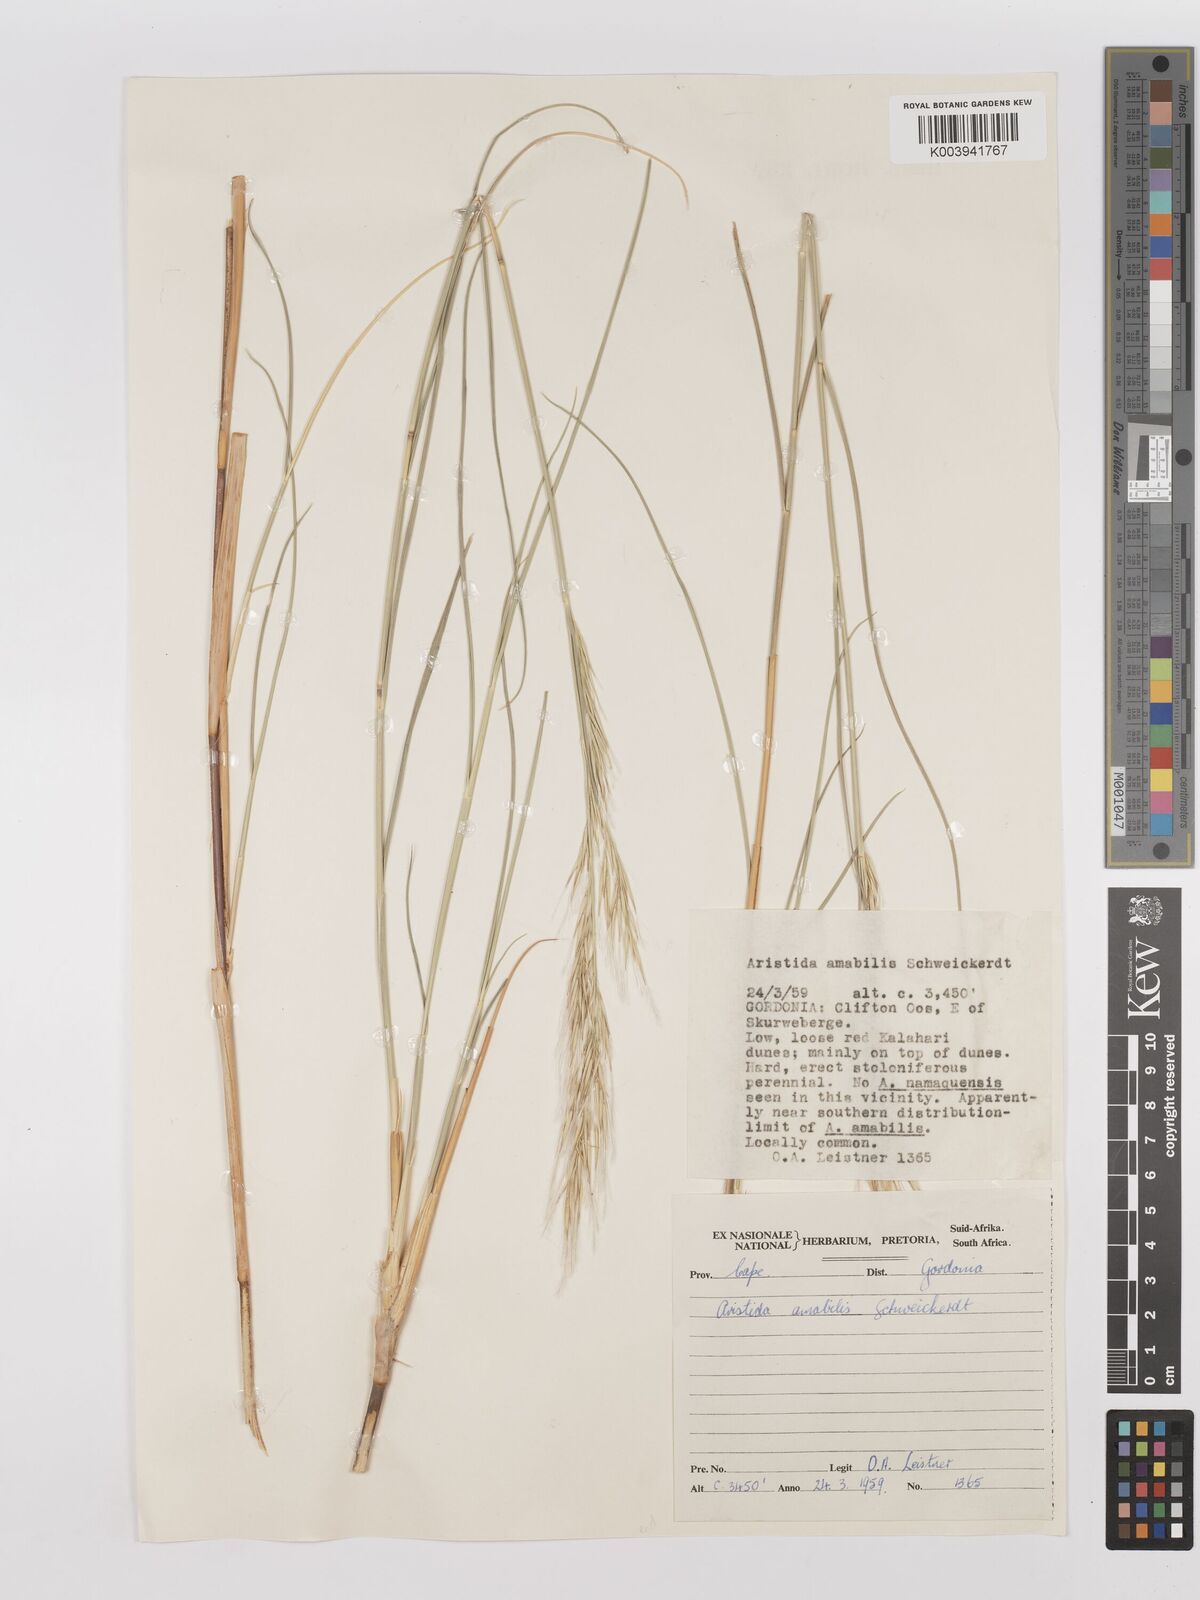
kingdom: Plantae
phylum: Tracheophyta
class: Liliopsida
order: Poales
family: Poaceae
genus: Stipagrostis
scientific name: Stipagrostis amabilis
